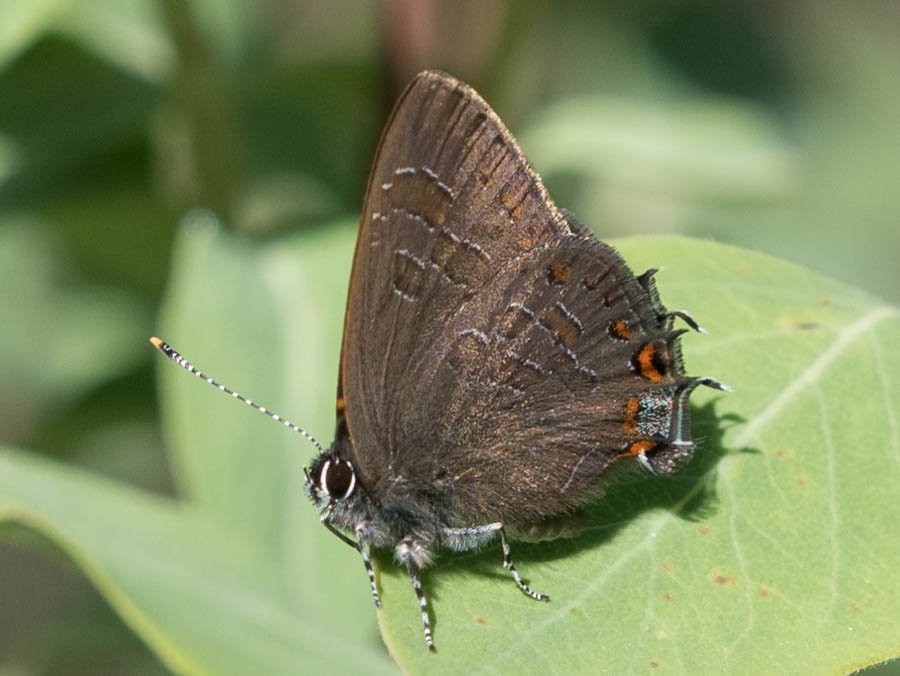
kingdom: Animalia
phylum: Arthropoda
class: Insecta
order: Lepidoptera
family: Lycaenidae
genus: Satyrium
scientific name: Satyrium liparops
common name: Striped Hairstreak
